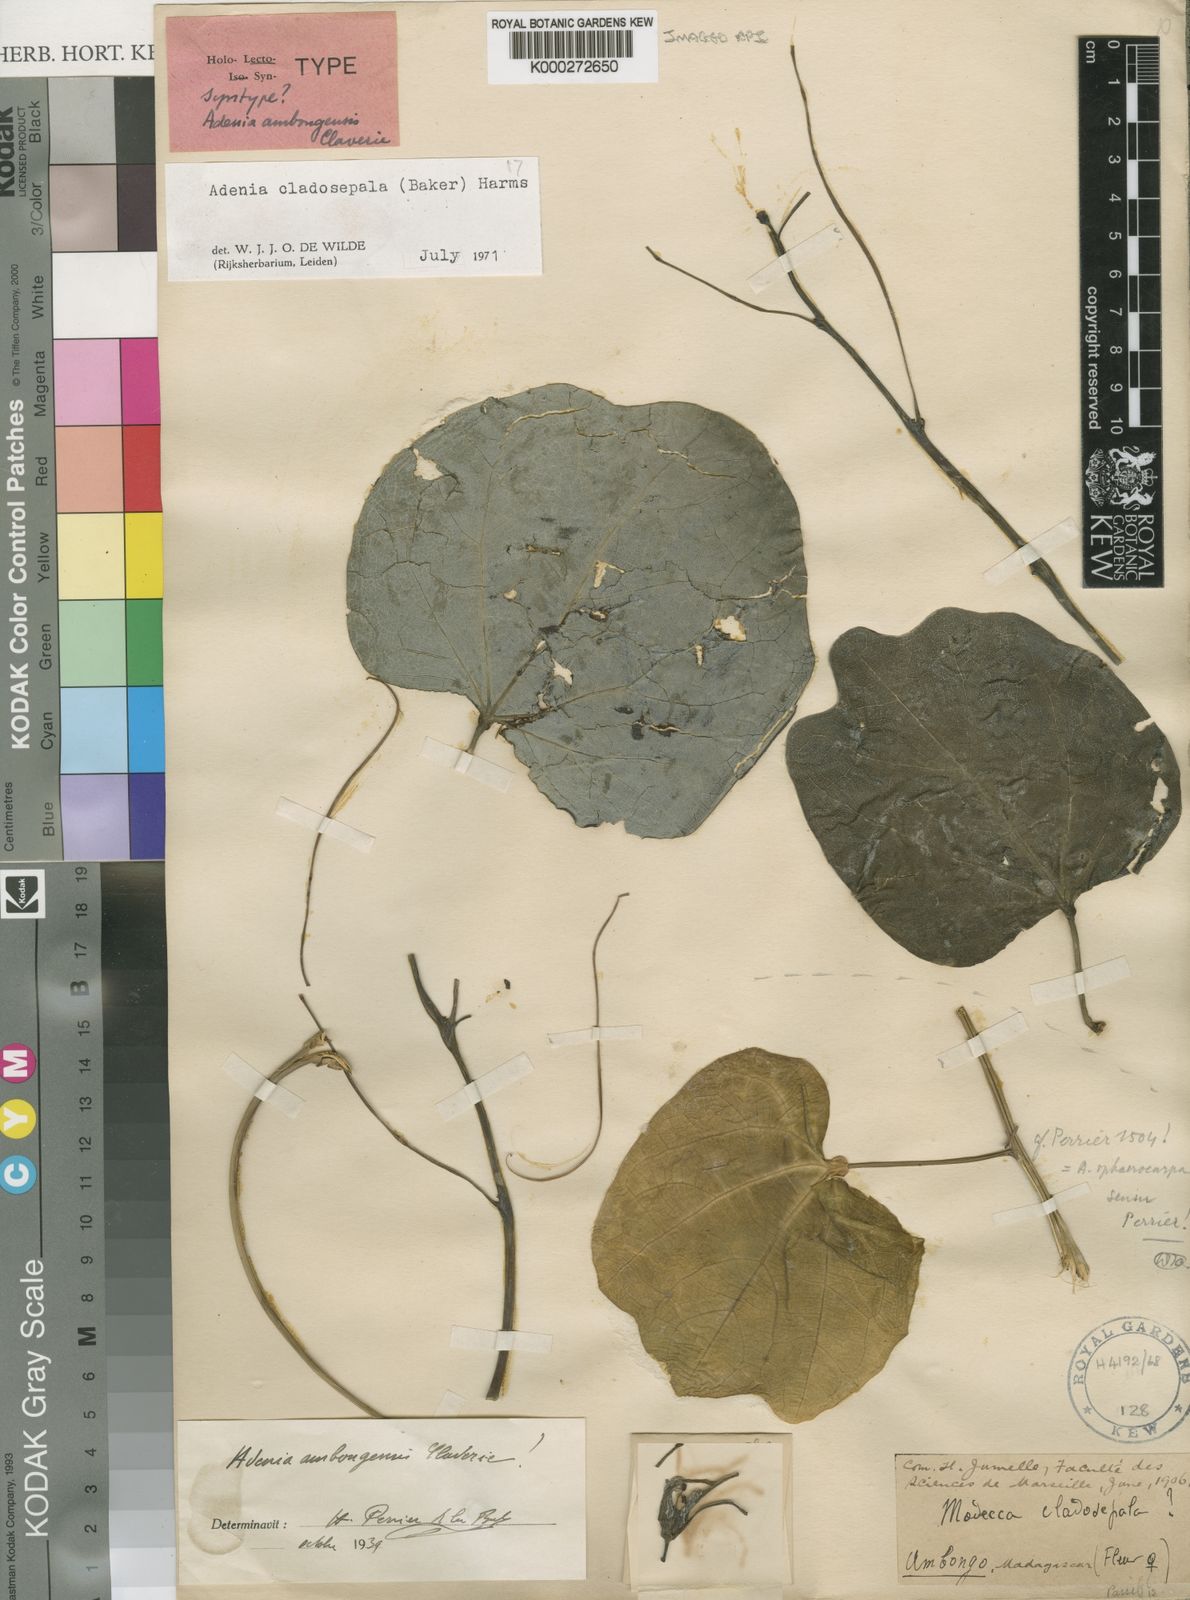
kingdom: Plantae
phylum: Tracheophyta
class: Magnoliopsida
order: Malpighiales
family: Passifloraceae
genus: Adenia
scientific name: Adenia cladosepala
